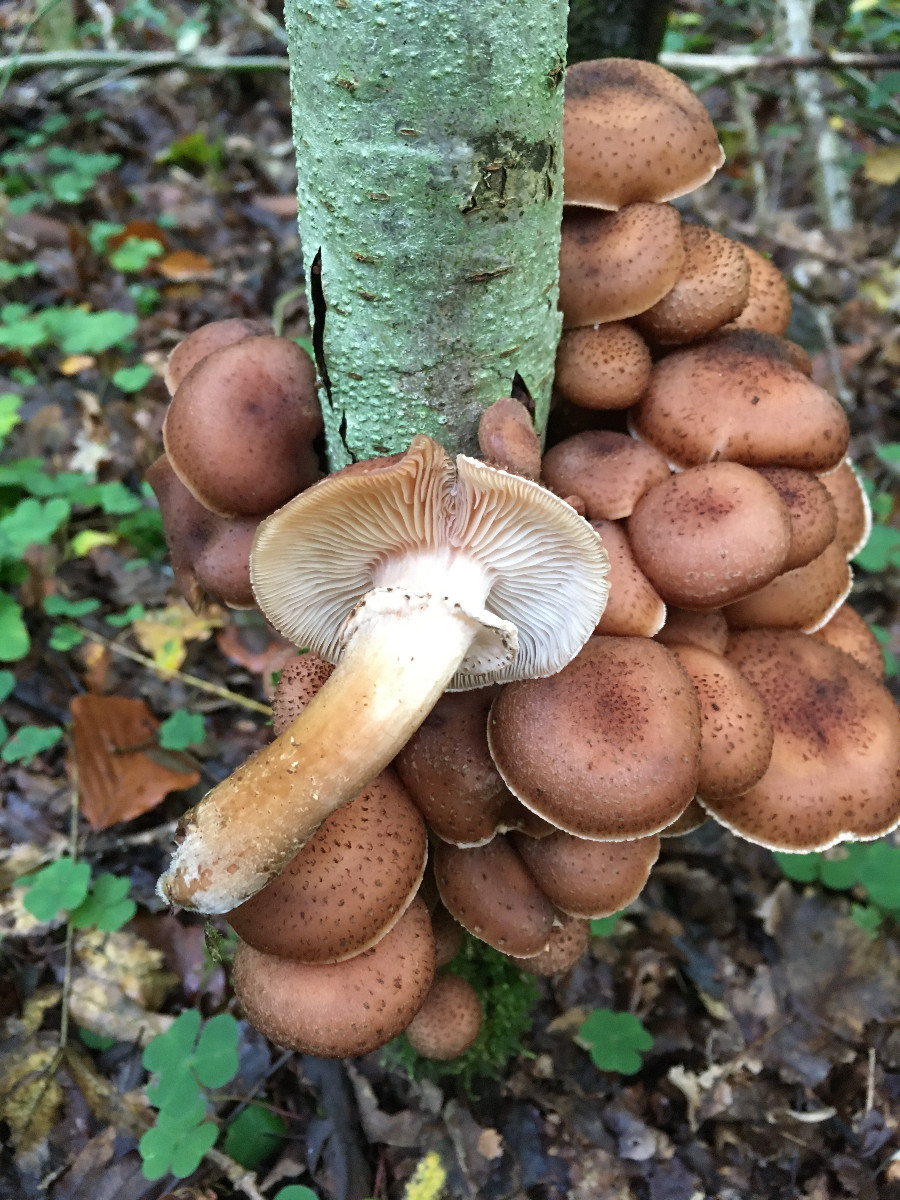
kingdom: Fungi
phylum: Basidiomycota
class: Agaricomycetes
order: Agaricales
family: Physalacriaceae
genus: Armillaria
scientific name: Armillaria ostoyae
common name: mørk honningsvamp
